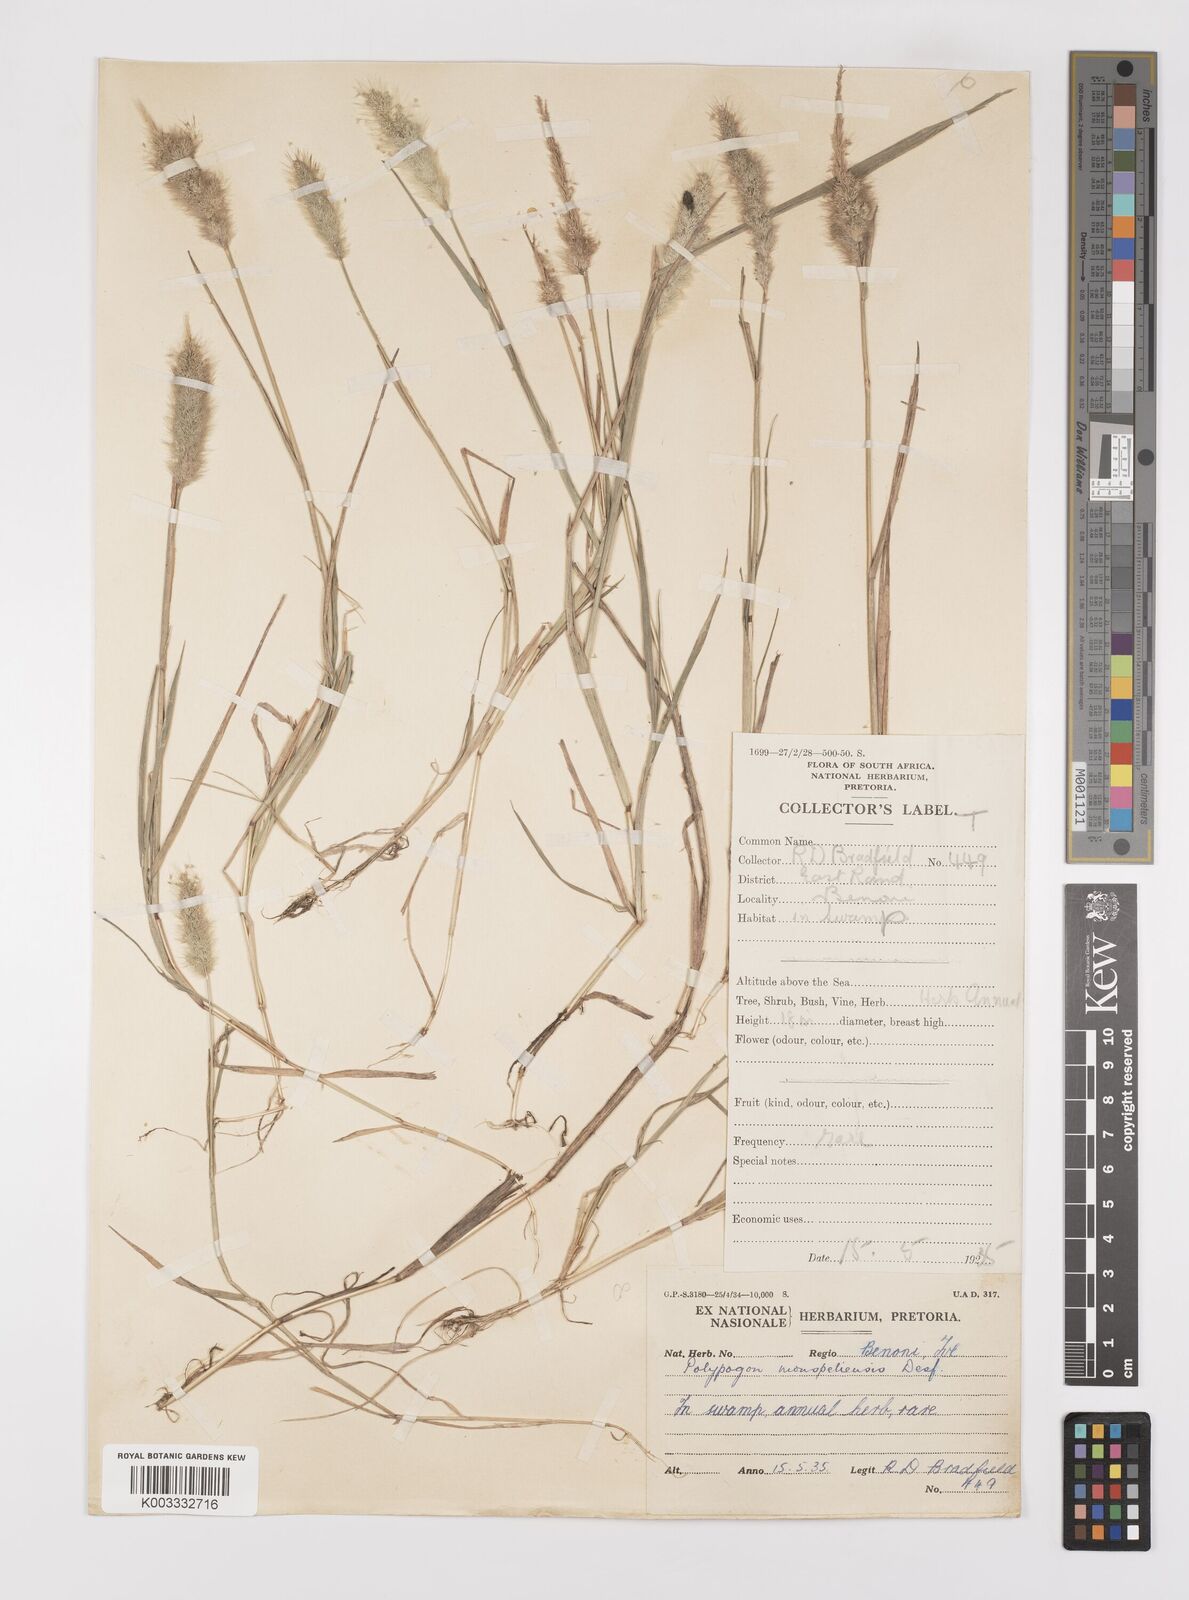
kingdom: Plantae
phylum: Tracheophyta
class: Liliopsida
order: Poales
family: Poaceae
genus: Polypogon
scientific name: Polypogon monspeliensis
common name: Annual rabbitsfoot grass
